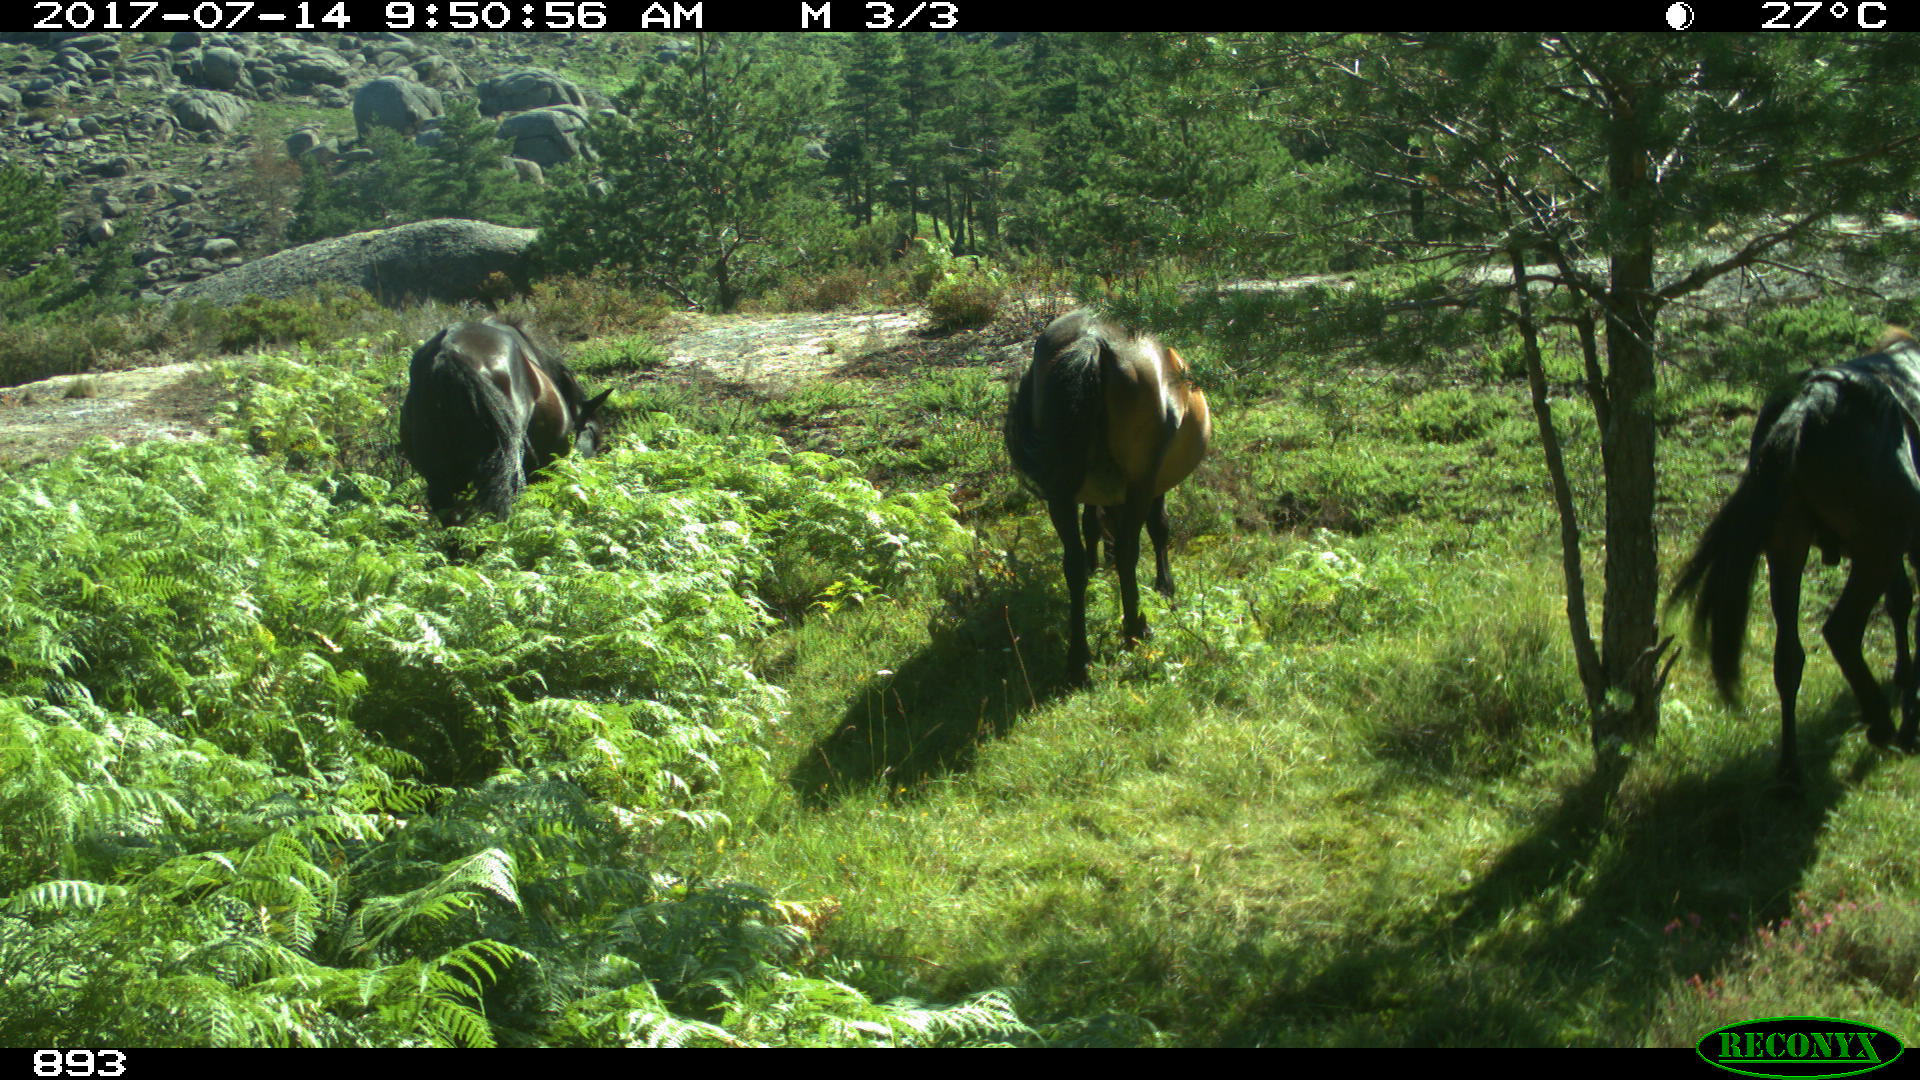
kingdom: Animalia
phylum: Chordata
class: Mammalia
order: Perissodactyla
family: Equidae
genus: Equus
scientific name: Equus caballus
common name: Horse
